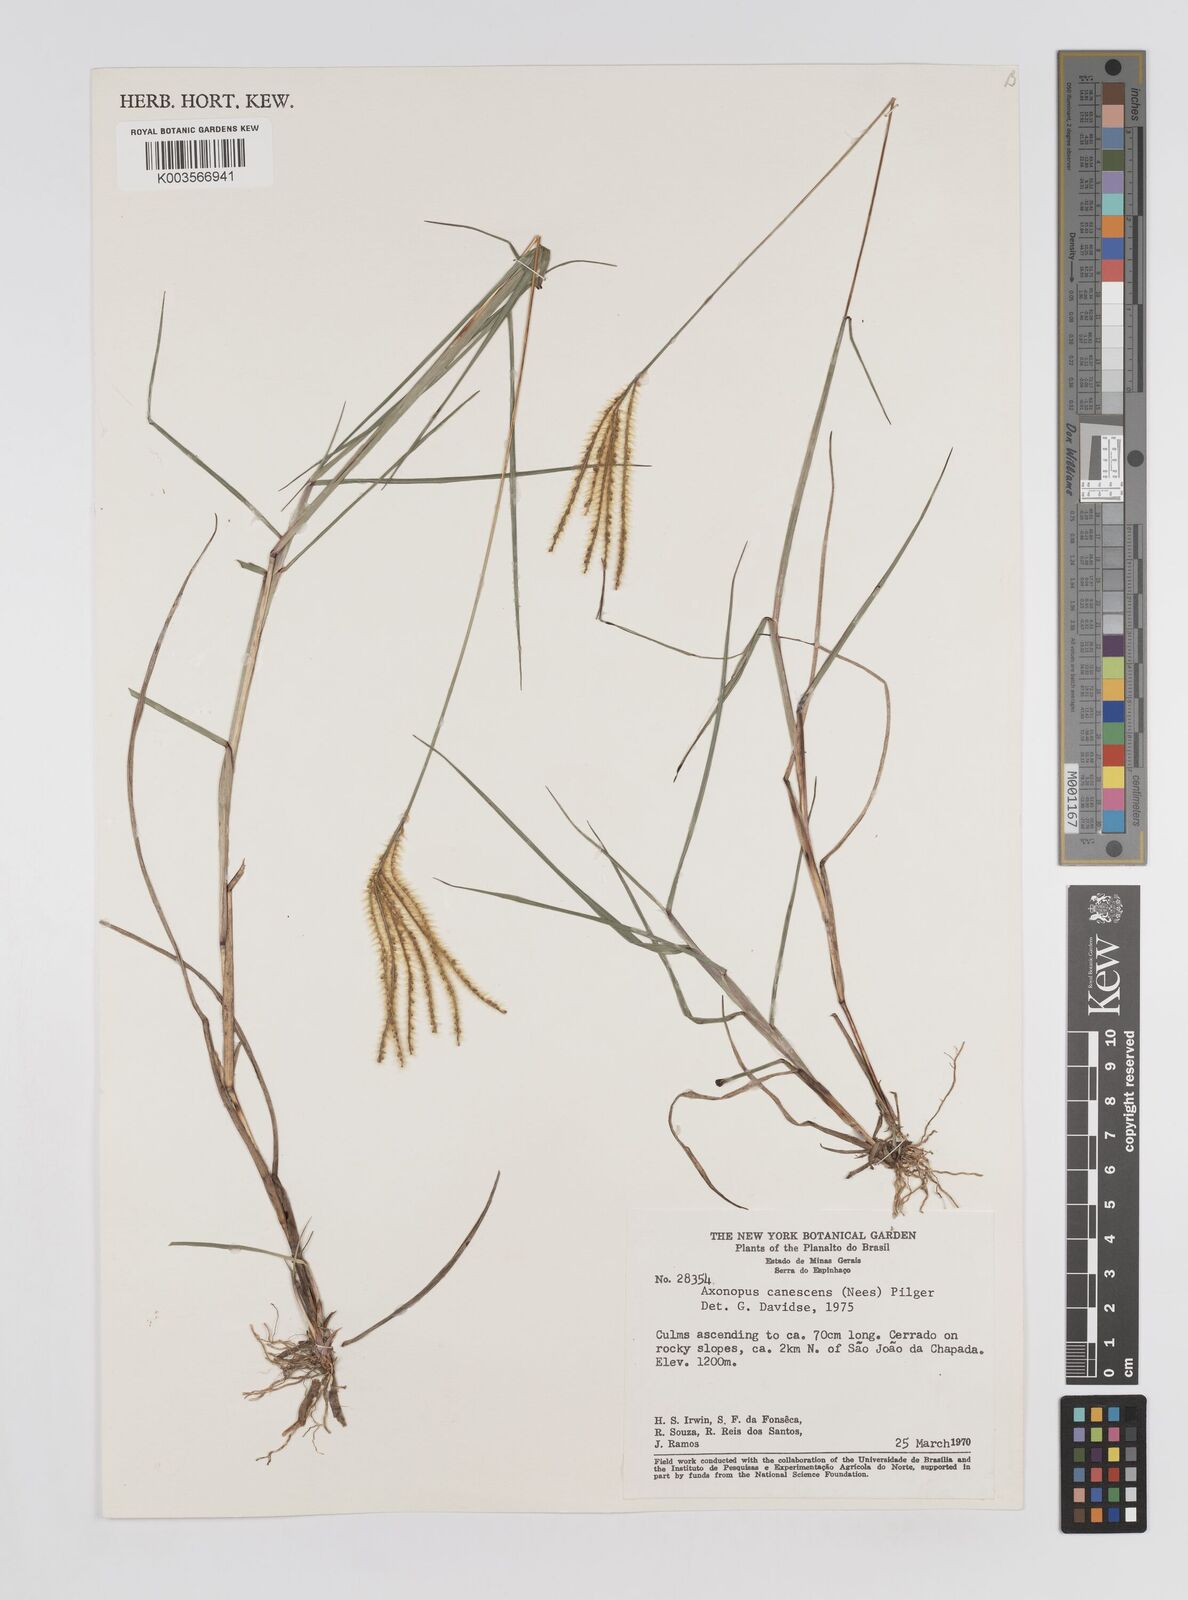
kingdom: Plantae
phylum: Tracheophyta
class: Liliopsida
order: Poales
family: Poaceae
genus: Axonopus
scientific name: Axonopus aureus
